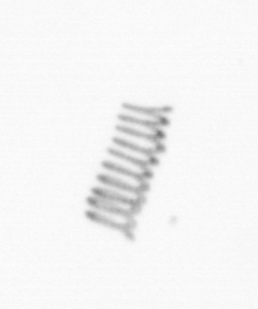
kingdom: Chromista
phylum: Ochrophyta
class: Bacillariophyceae
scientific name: Bacillariophyceae
